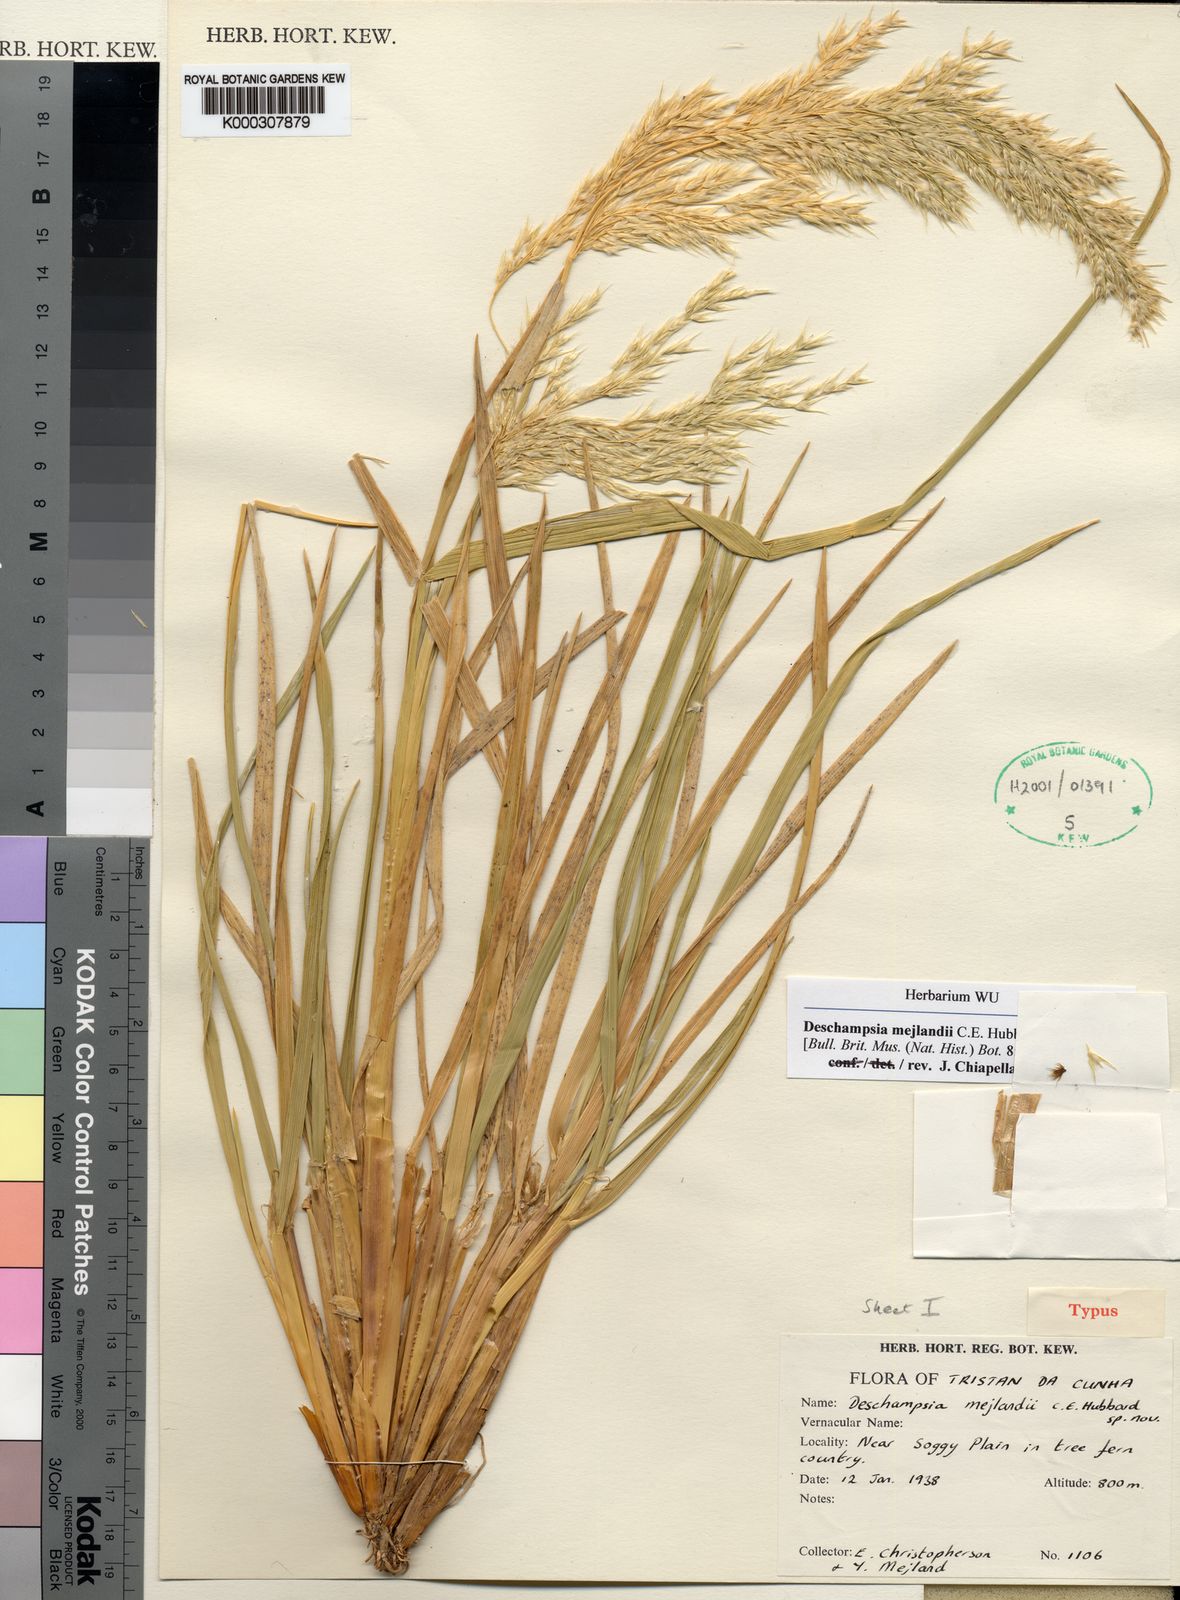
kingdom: Plantae
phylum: Tracheophyta
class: Liliopsida
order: Poales
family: Poaceae
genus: Deschampsia
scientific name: Deschampsia mejlandii
